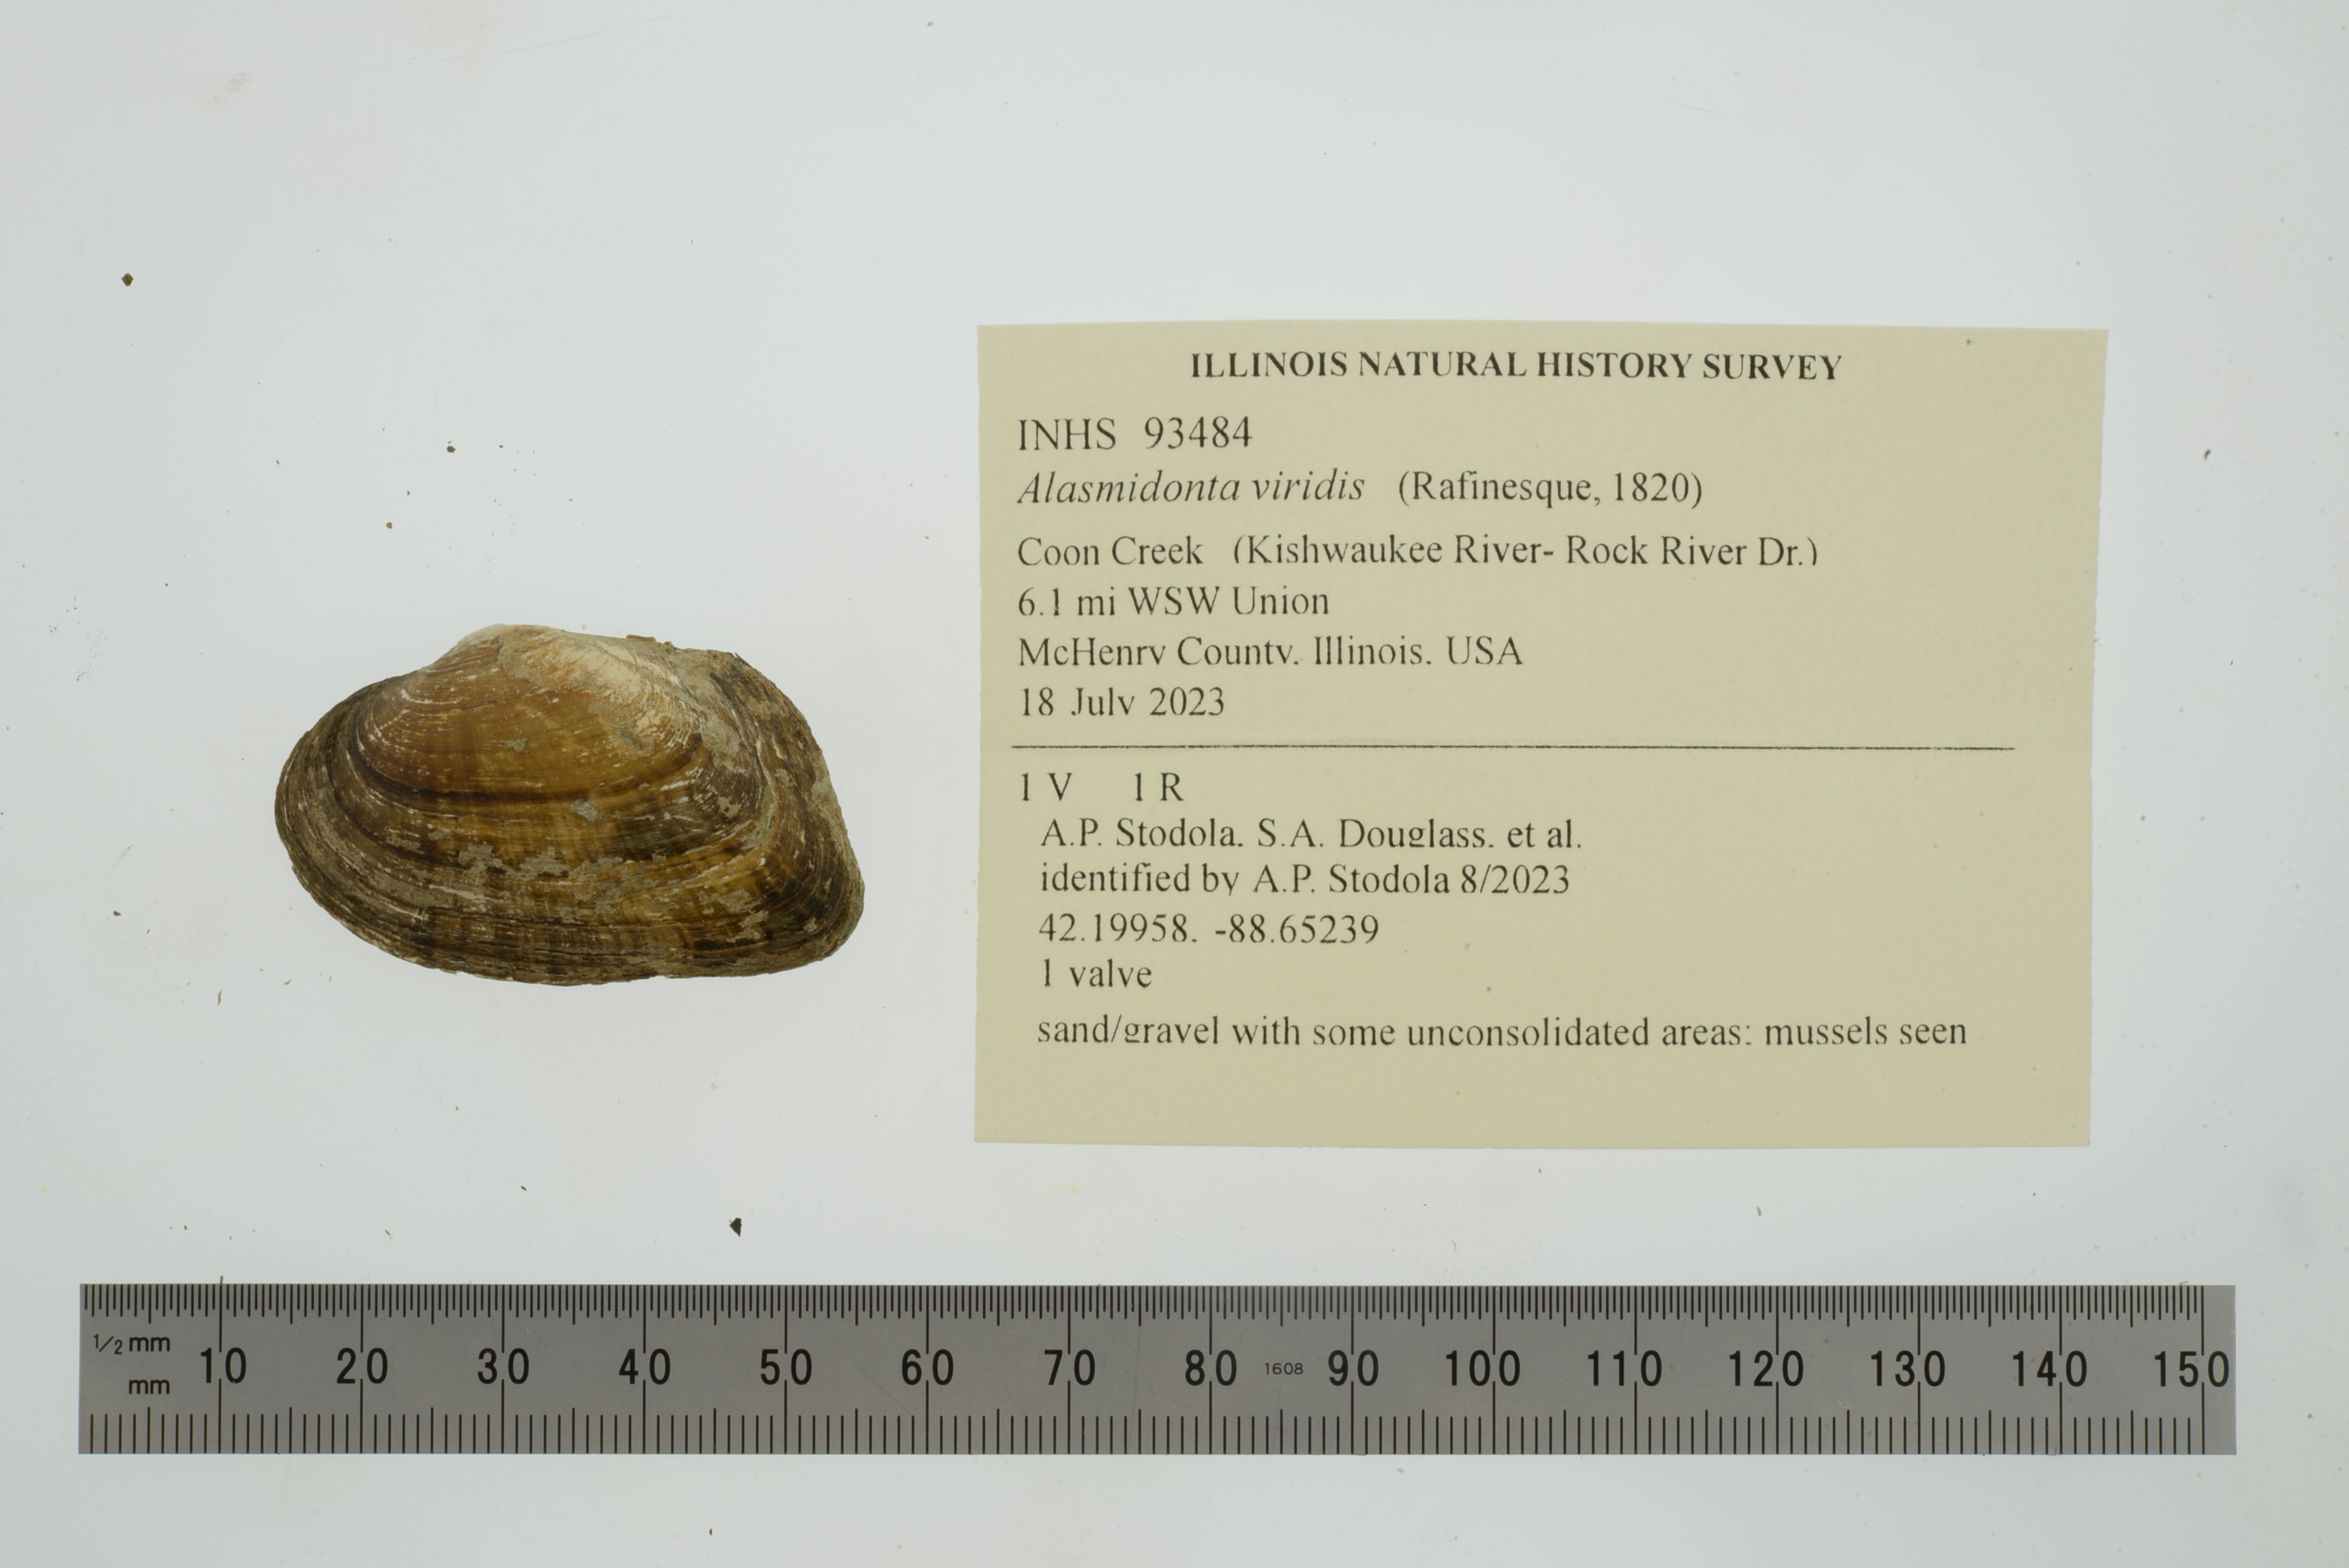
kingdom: Animalia
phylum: Mollusca
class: Bivalvia
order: Unionida
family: Unionidae
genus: Alasmidonta
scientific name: Alasmidonta viridis
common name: Slippershell mussel
